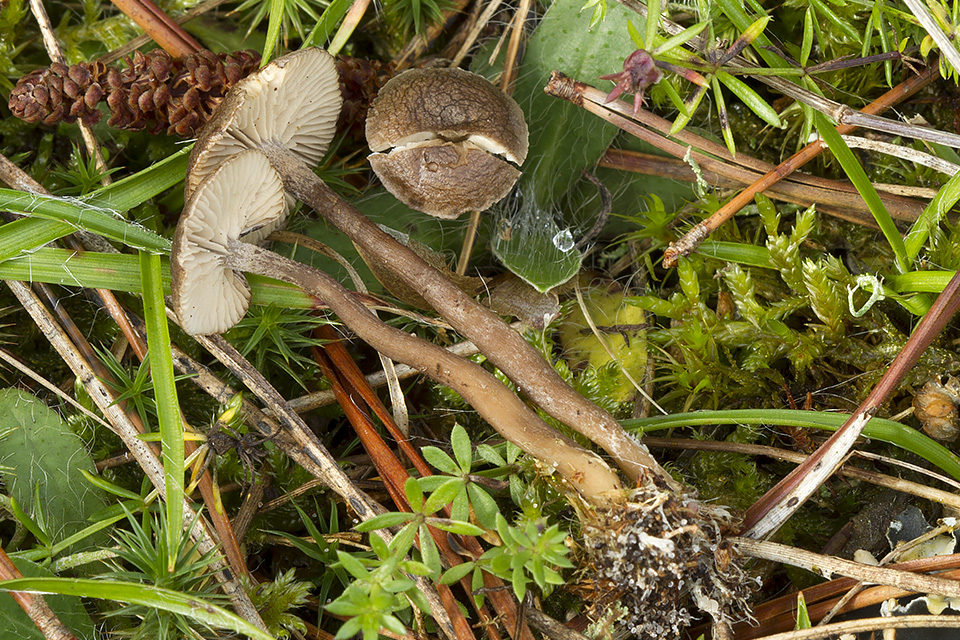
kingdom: Fungi
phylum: Basidiomycota
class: Agaricomycetes
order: Agaricales
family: Entolomataceae
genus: Clitopilus
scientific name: Clitopilus caelatus
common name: gråbrun troldhat
